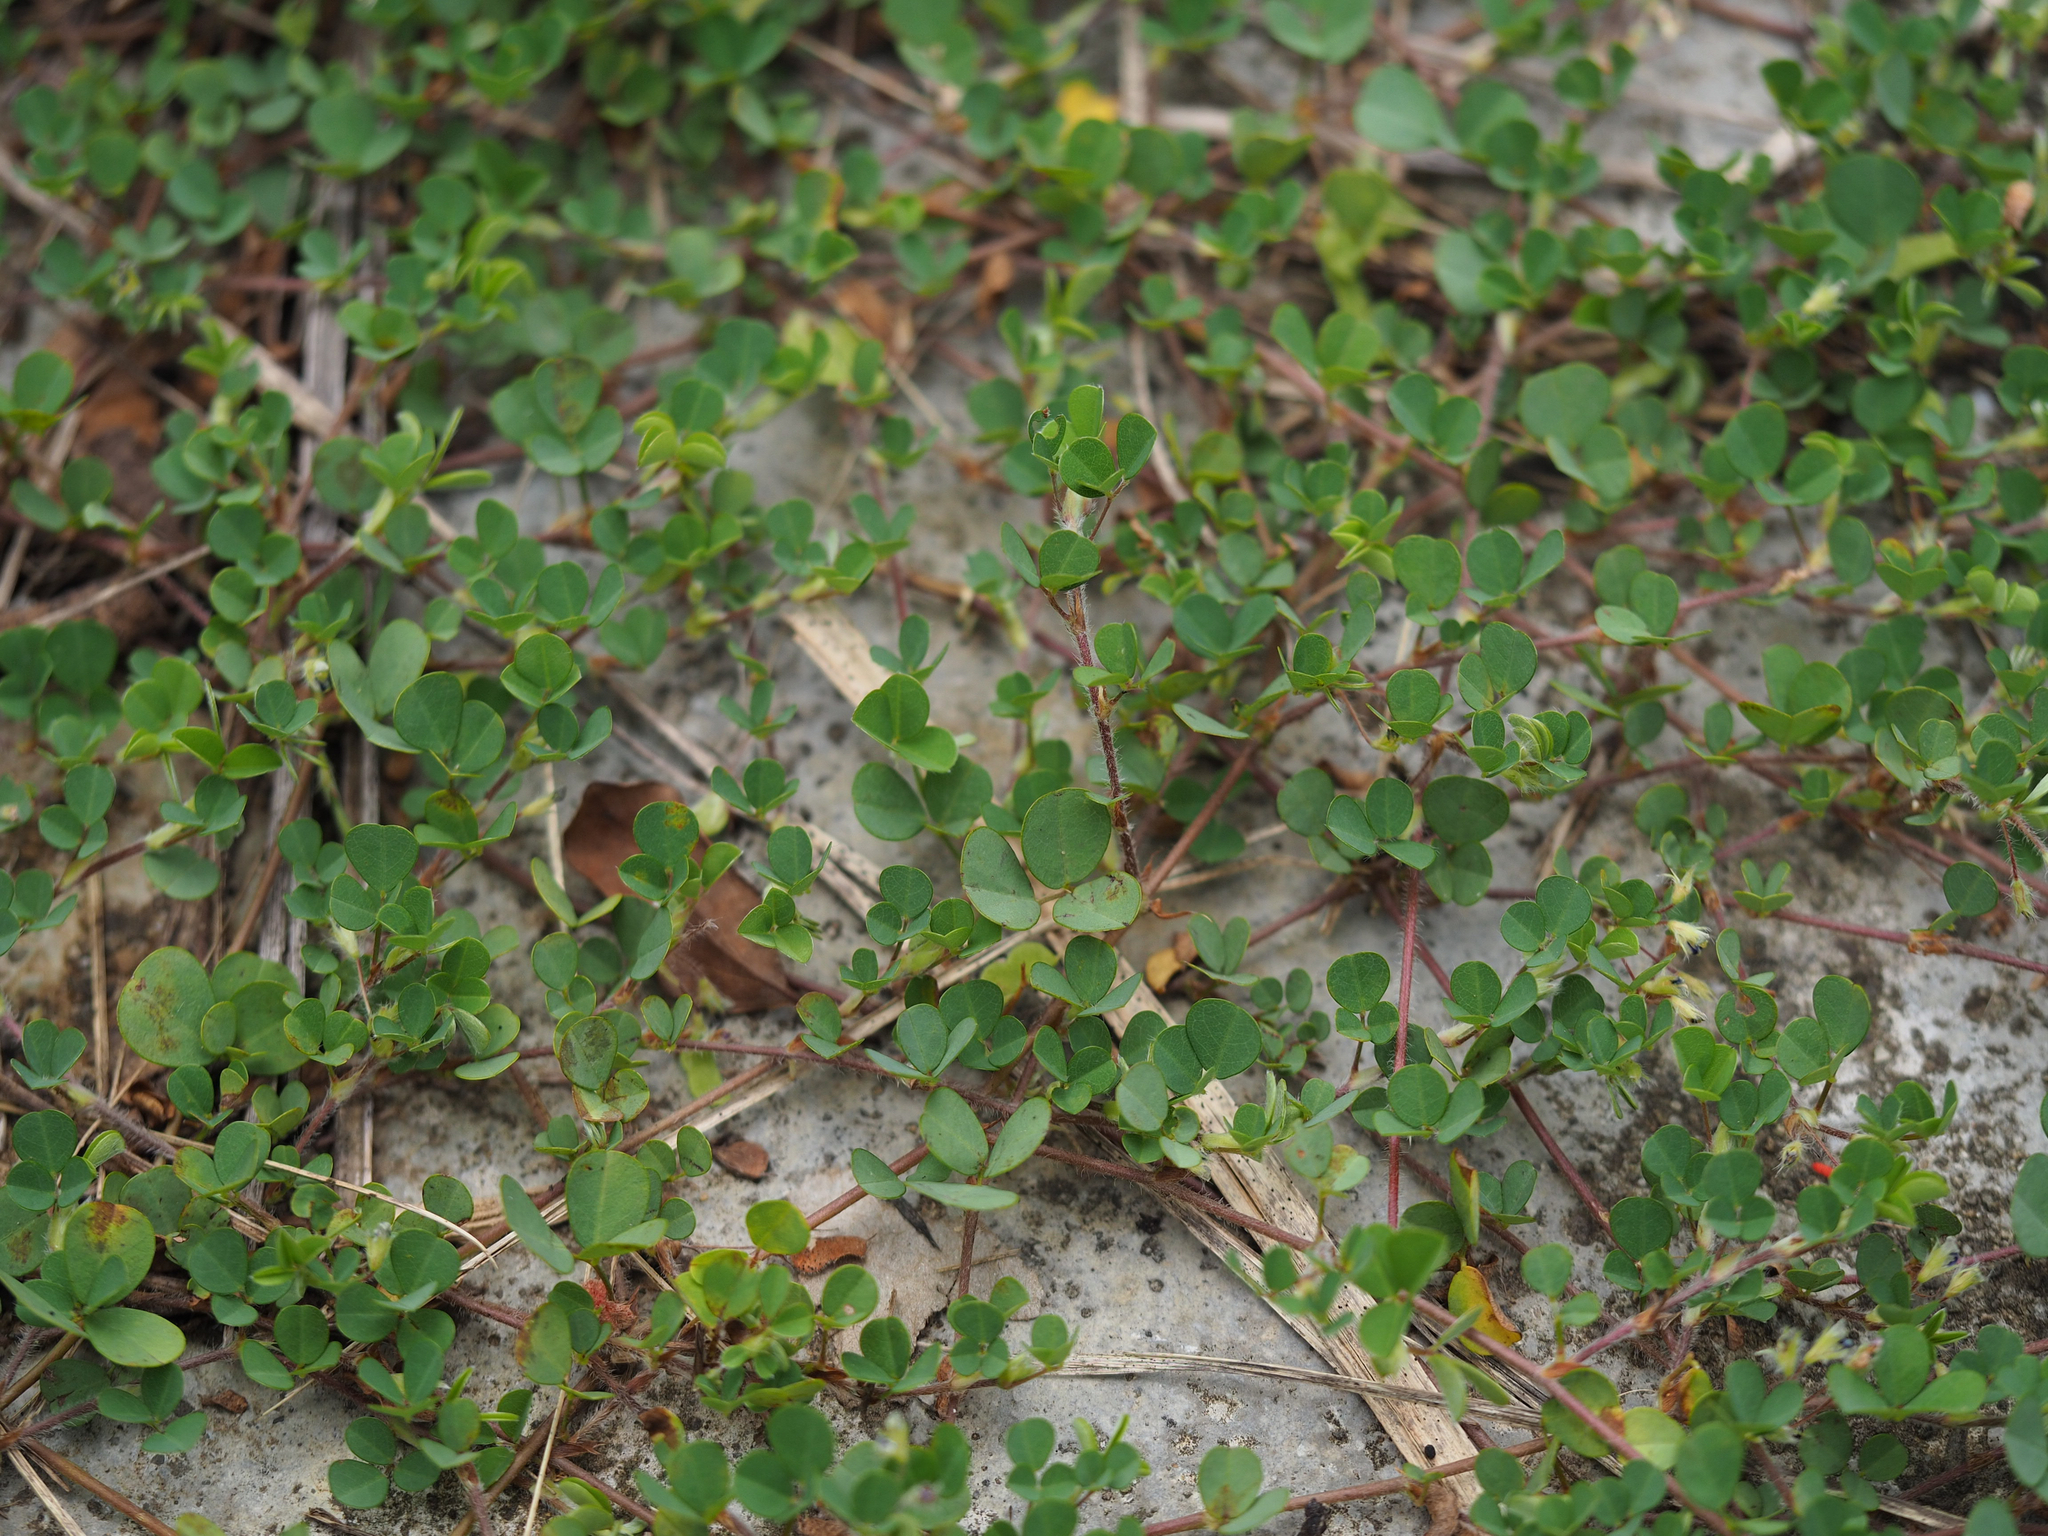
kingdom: Plantae
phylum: Tracheophyta
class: Magnoliopsida
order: Fabales
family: Fabaceae
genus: Grona
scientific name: Grona triflora
